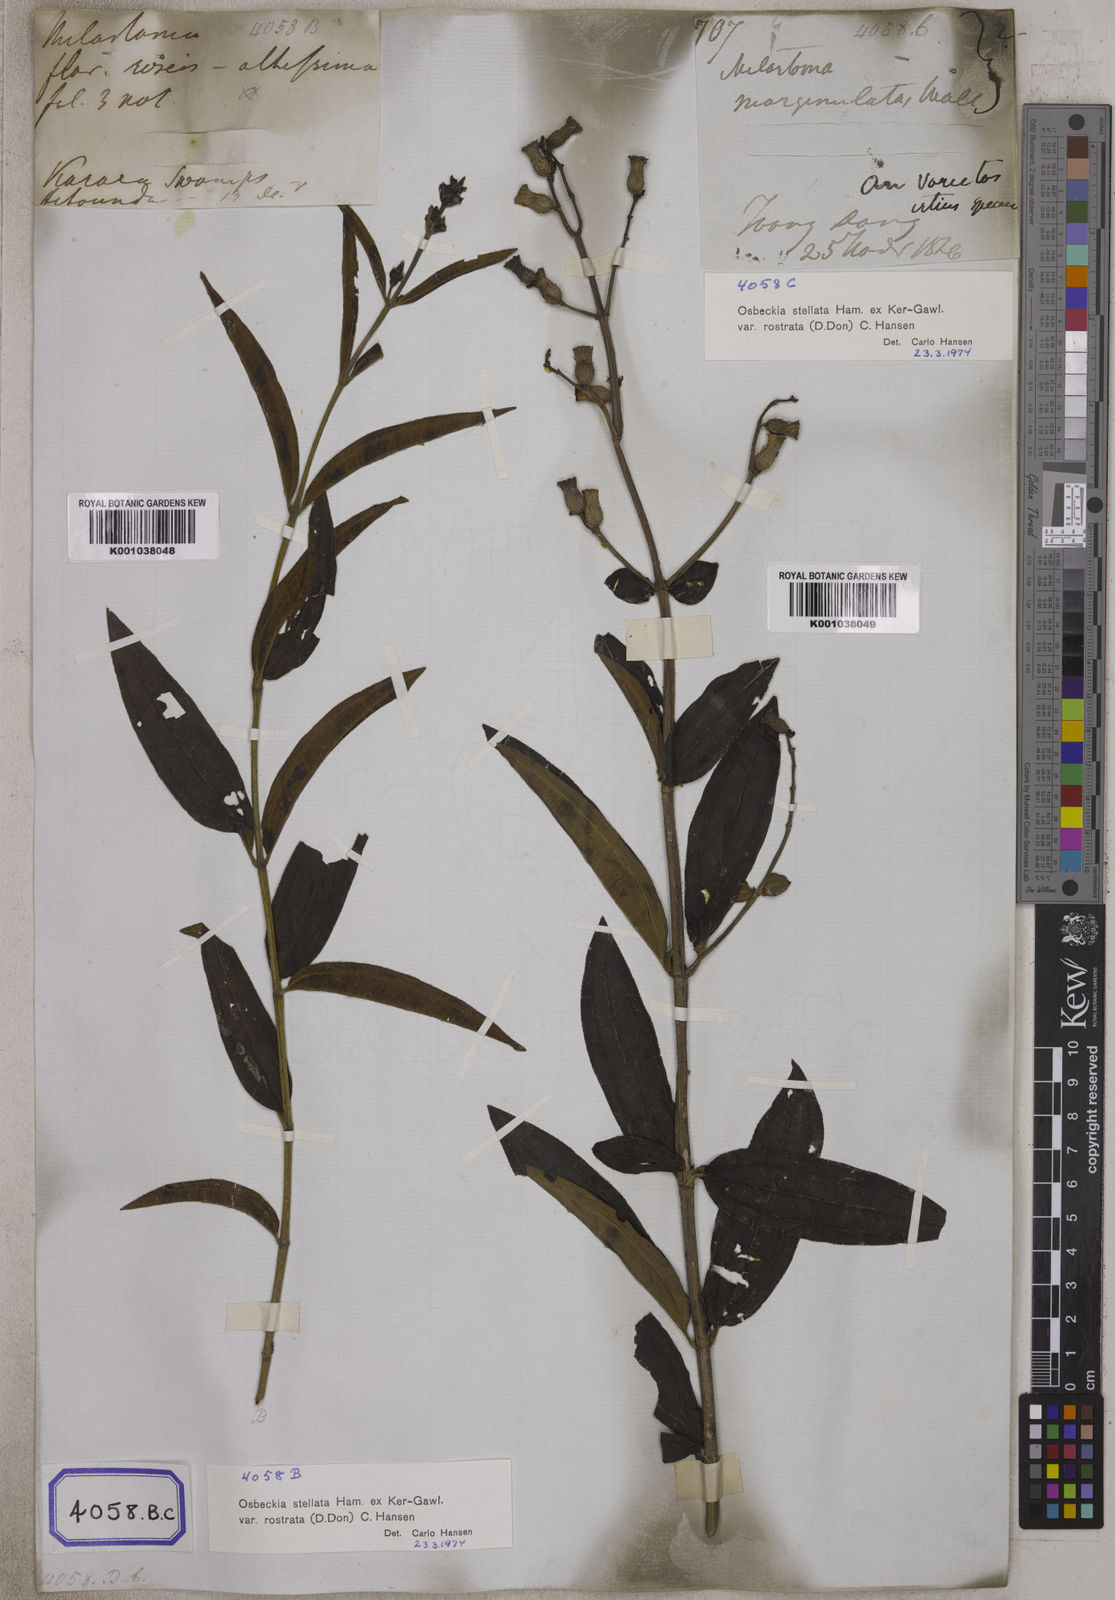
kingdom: Plantae
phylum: Tracheophyta
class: Magnoliopsida
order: Myrtales
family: Melastomataceae
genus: Osbeckia
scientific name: Osbeckia rostrata
